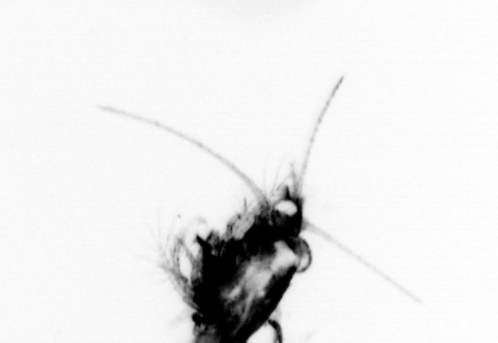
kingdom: Animalia
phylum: Arthropoda
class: Malacostraca
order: Decapoda
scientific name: Decapoda
